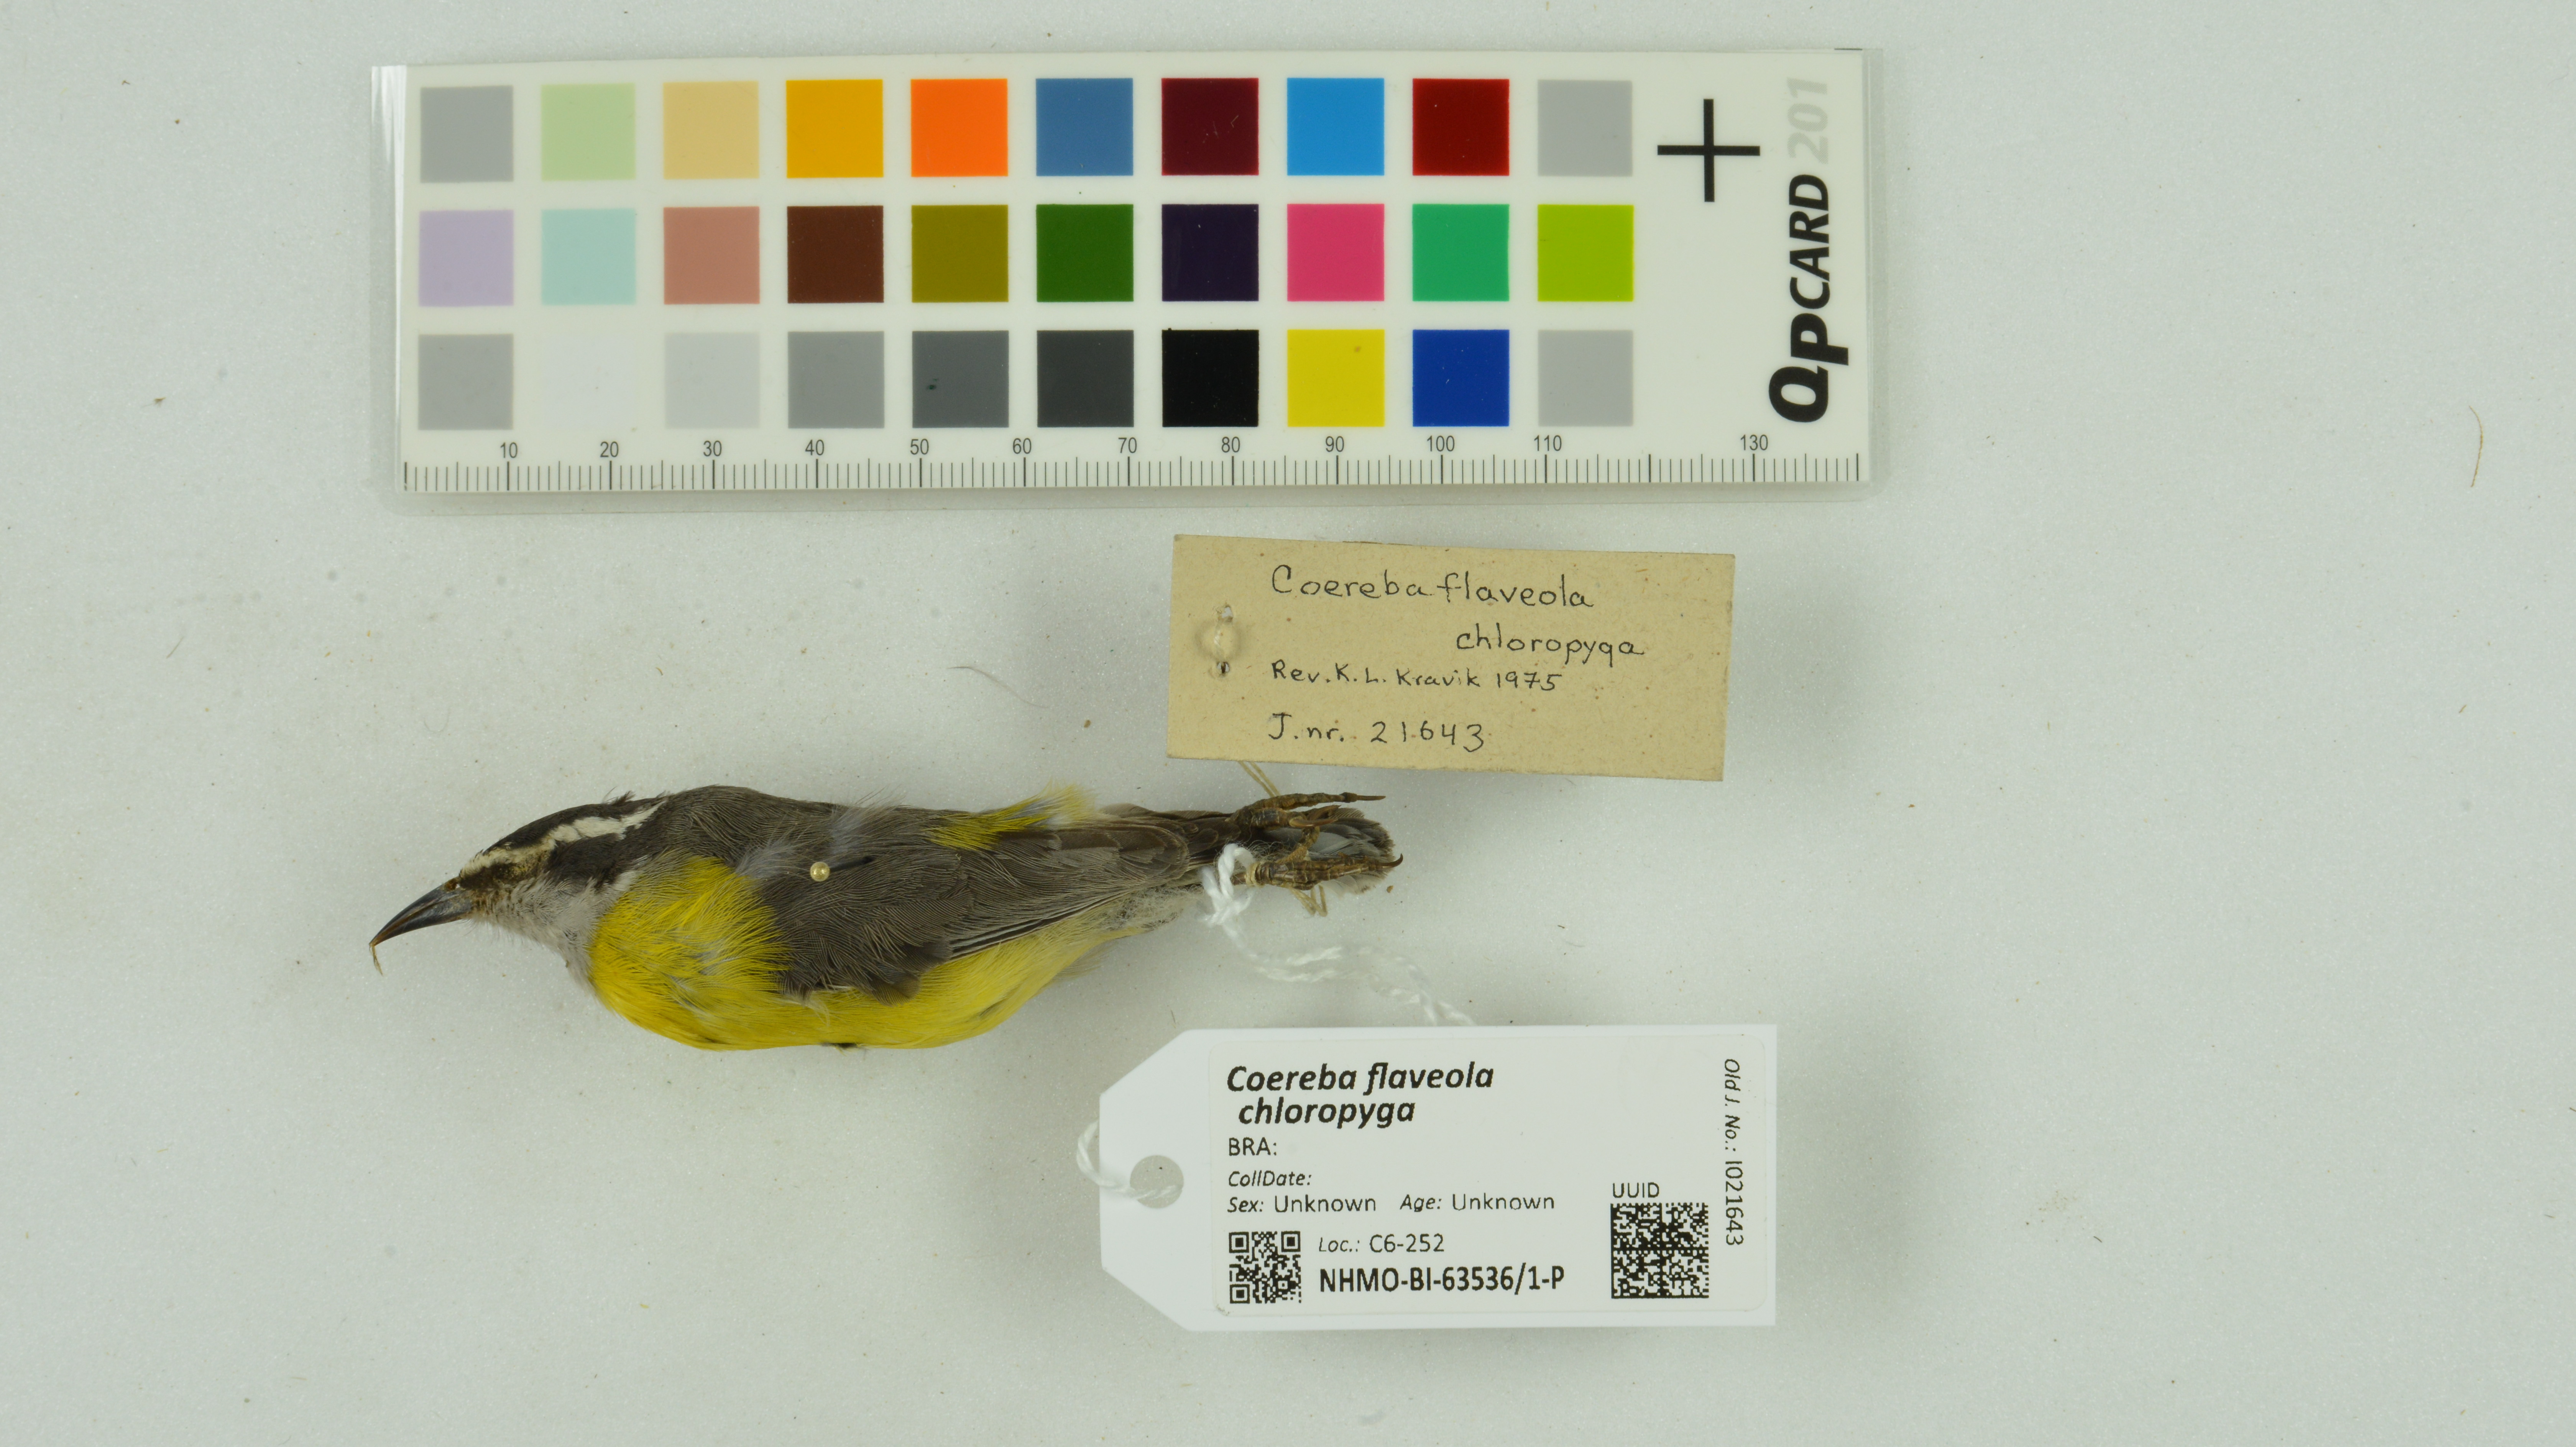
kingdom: Animalia
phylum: Chordata
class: Aves
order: Passeriformes
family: Thraupidae
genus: Coereba
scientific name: Coereba flaveola
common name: Bananaquit
